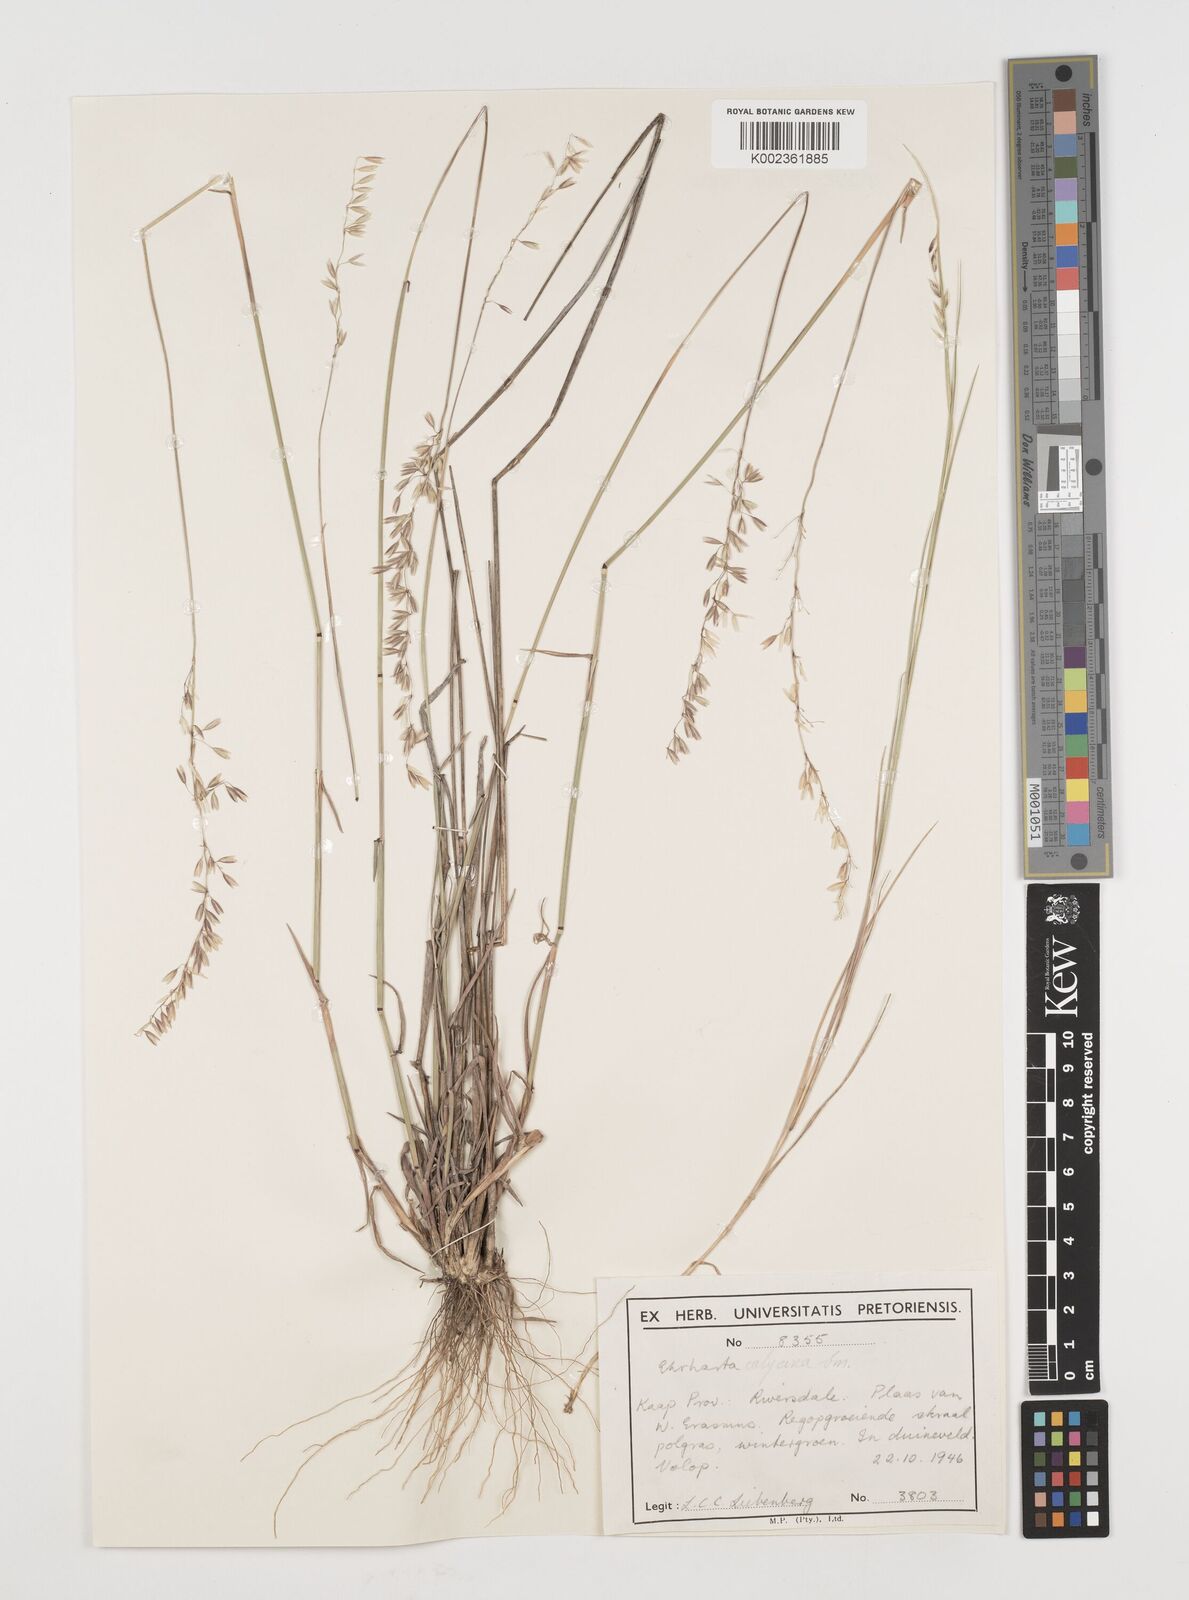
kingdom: Plantae
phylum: Tracheophyta
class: Liliopsida
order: Poales
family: Poaceae
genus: Ehrharta
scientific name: Ehrharta
